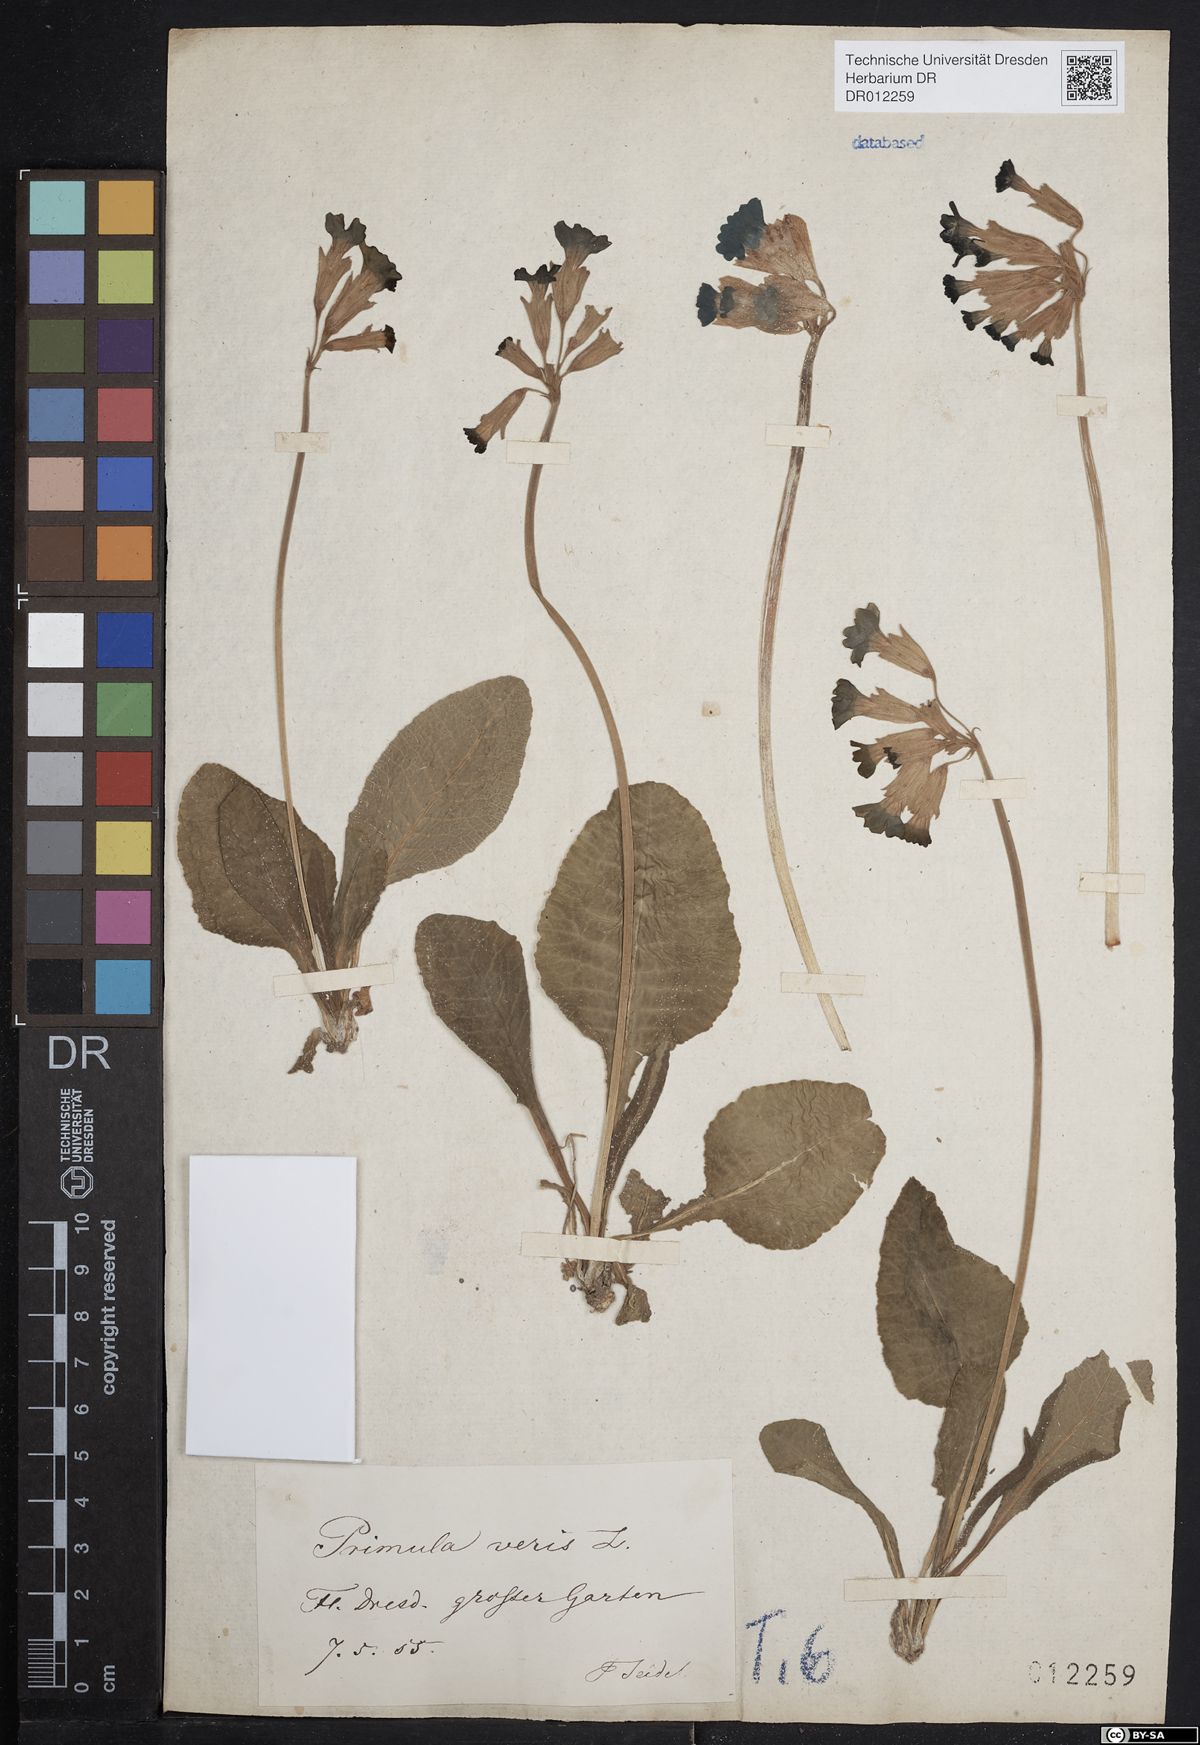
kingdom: Plantae
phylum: Tracheophyta
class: Magnoliopsida
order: Ericales
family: Primulaceae
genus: Primula
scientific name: Primula veris
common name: Cowslip
